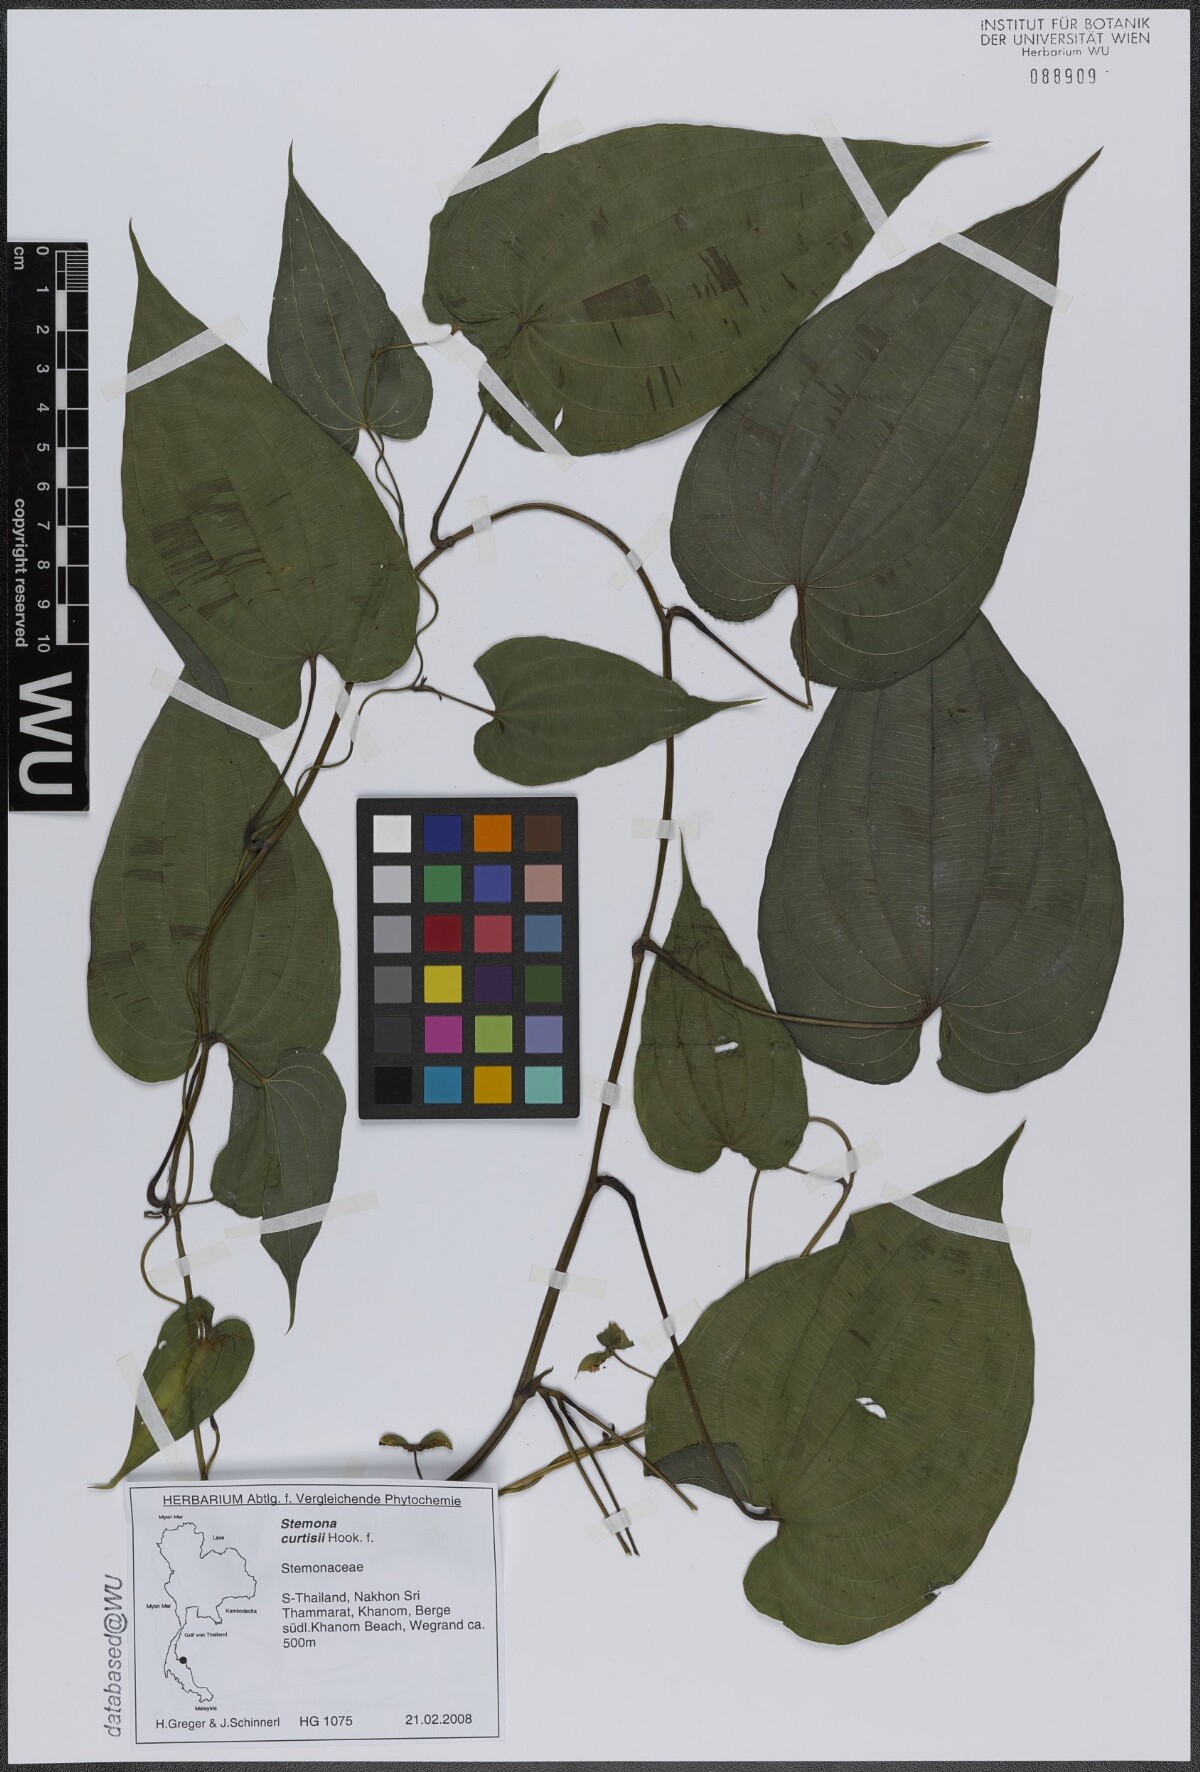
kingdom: Plantae
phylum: Tracheophyta
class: Liliopsida
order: Pandanales
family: Stemonaceae
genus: Stemona
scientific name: Stemona curtisii
